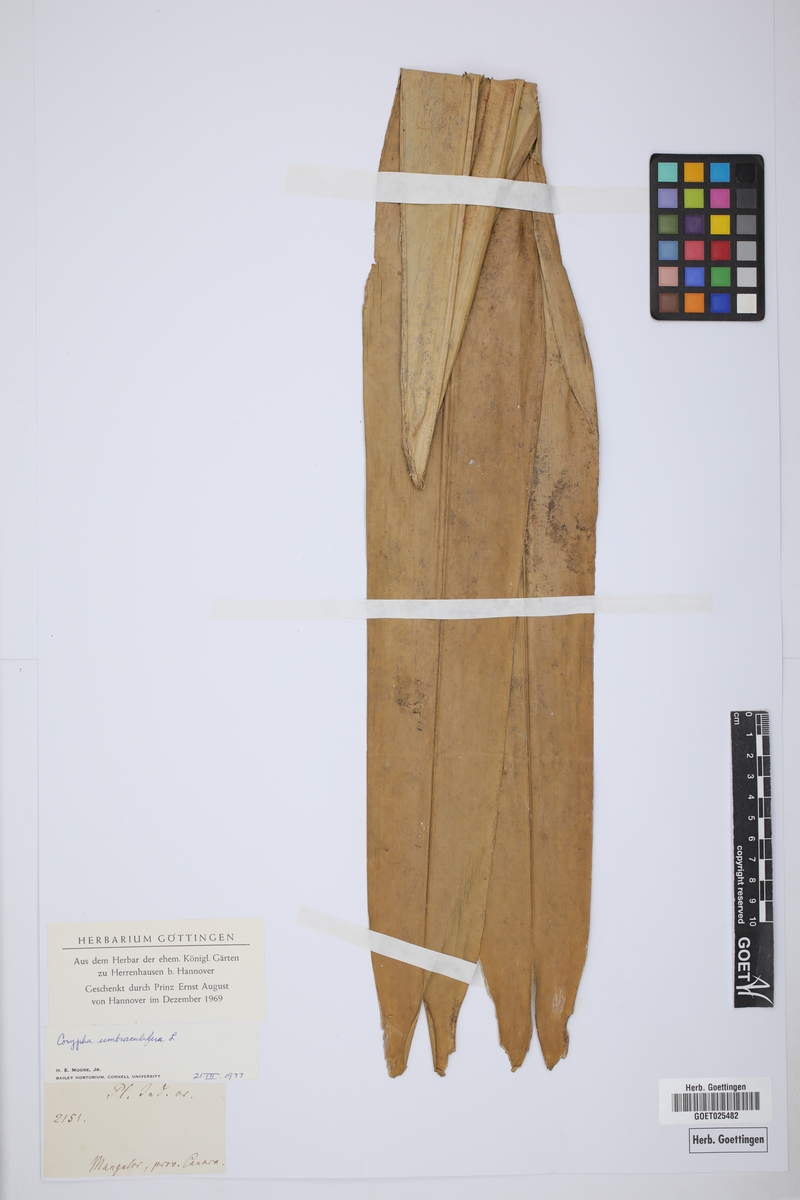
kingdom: Plantae
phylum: Tracheophyta
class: Liliopsida
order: Arecales
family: Arecaceae
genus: Corypha
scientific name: Corypha umbraculifera
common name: Talipot palm
